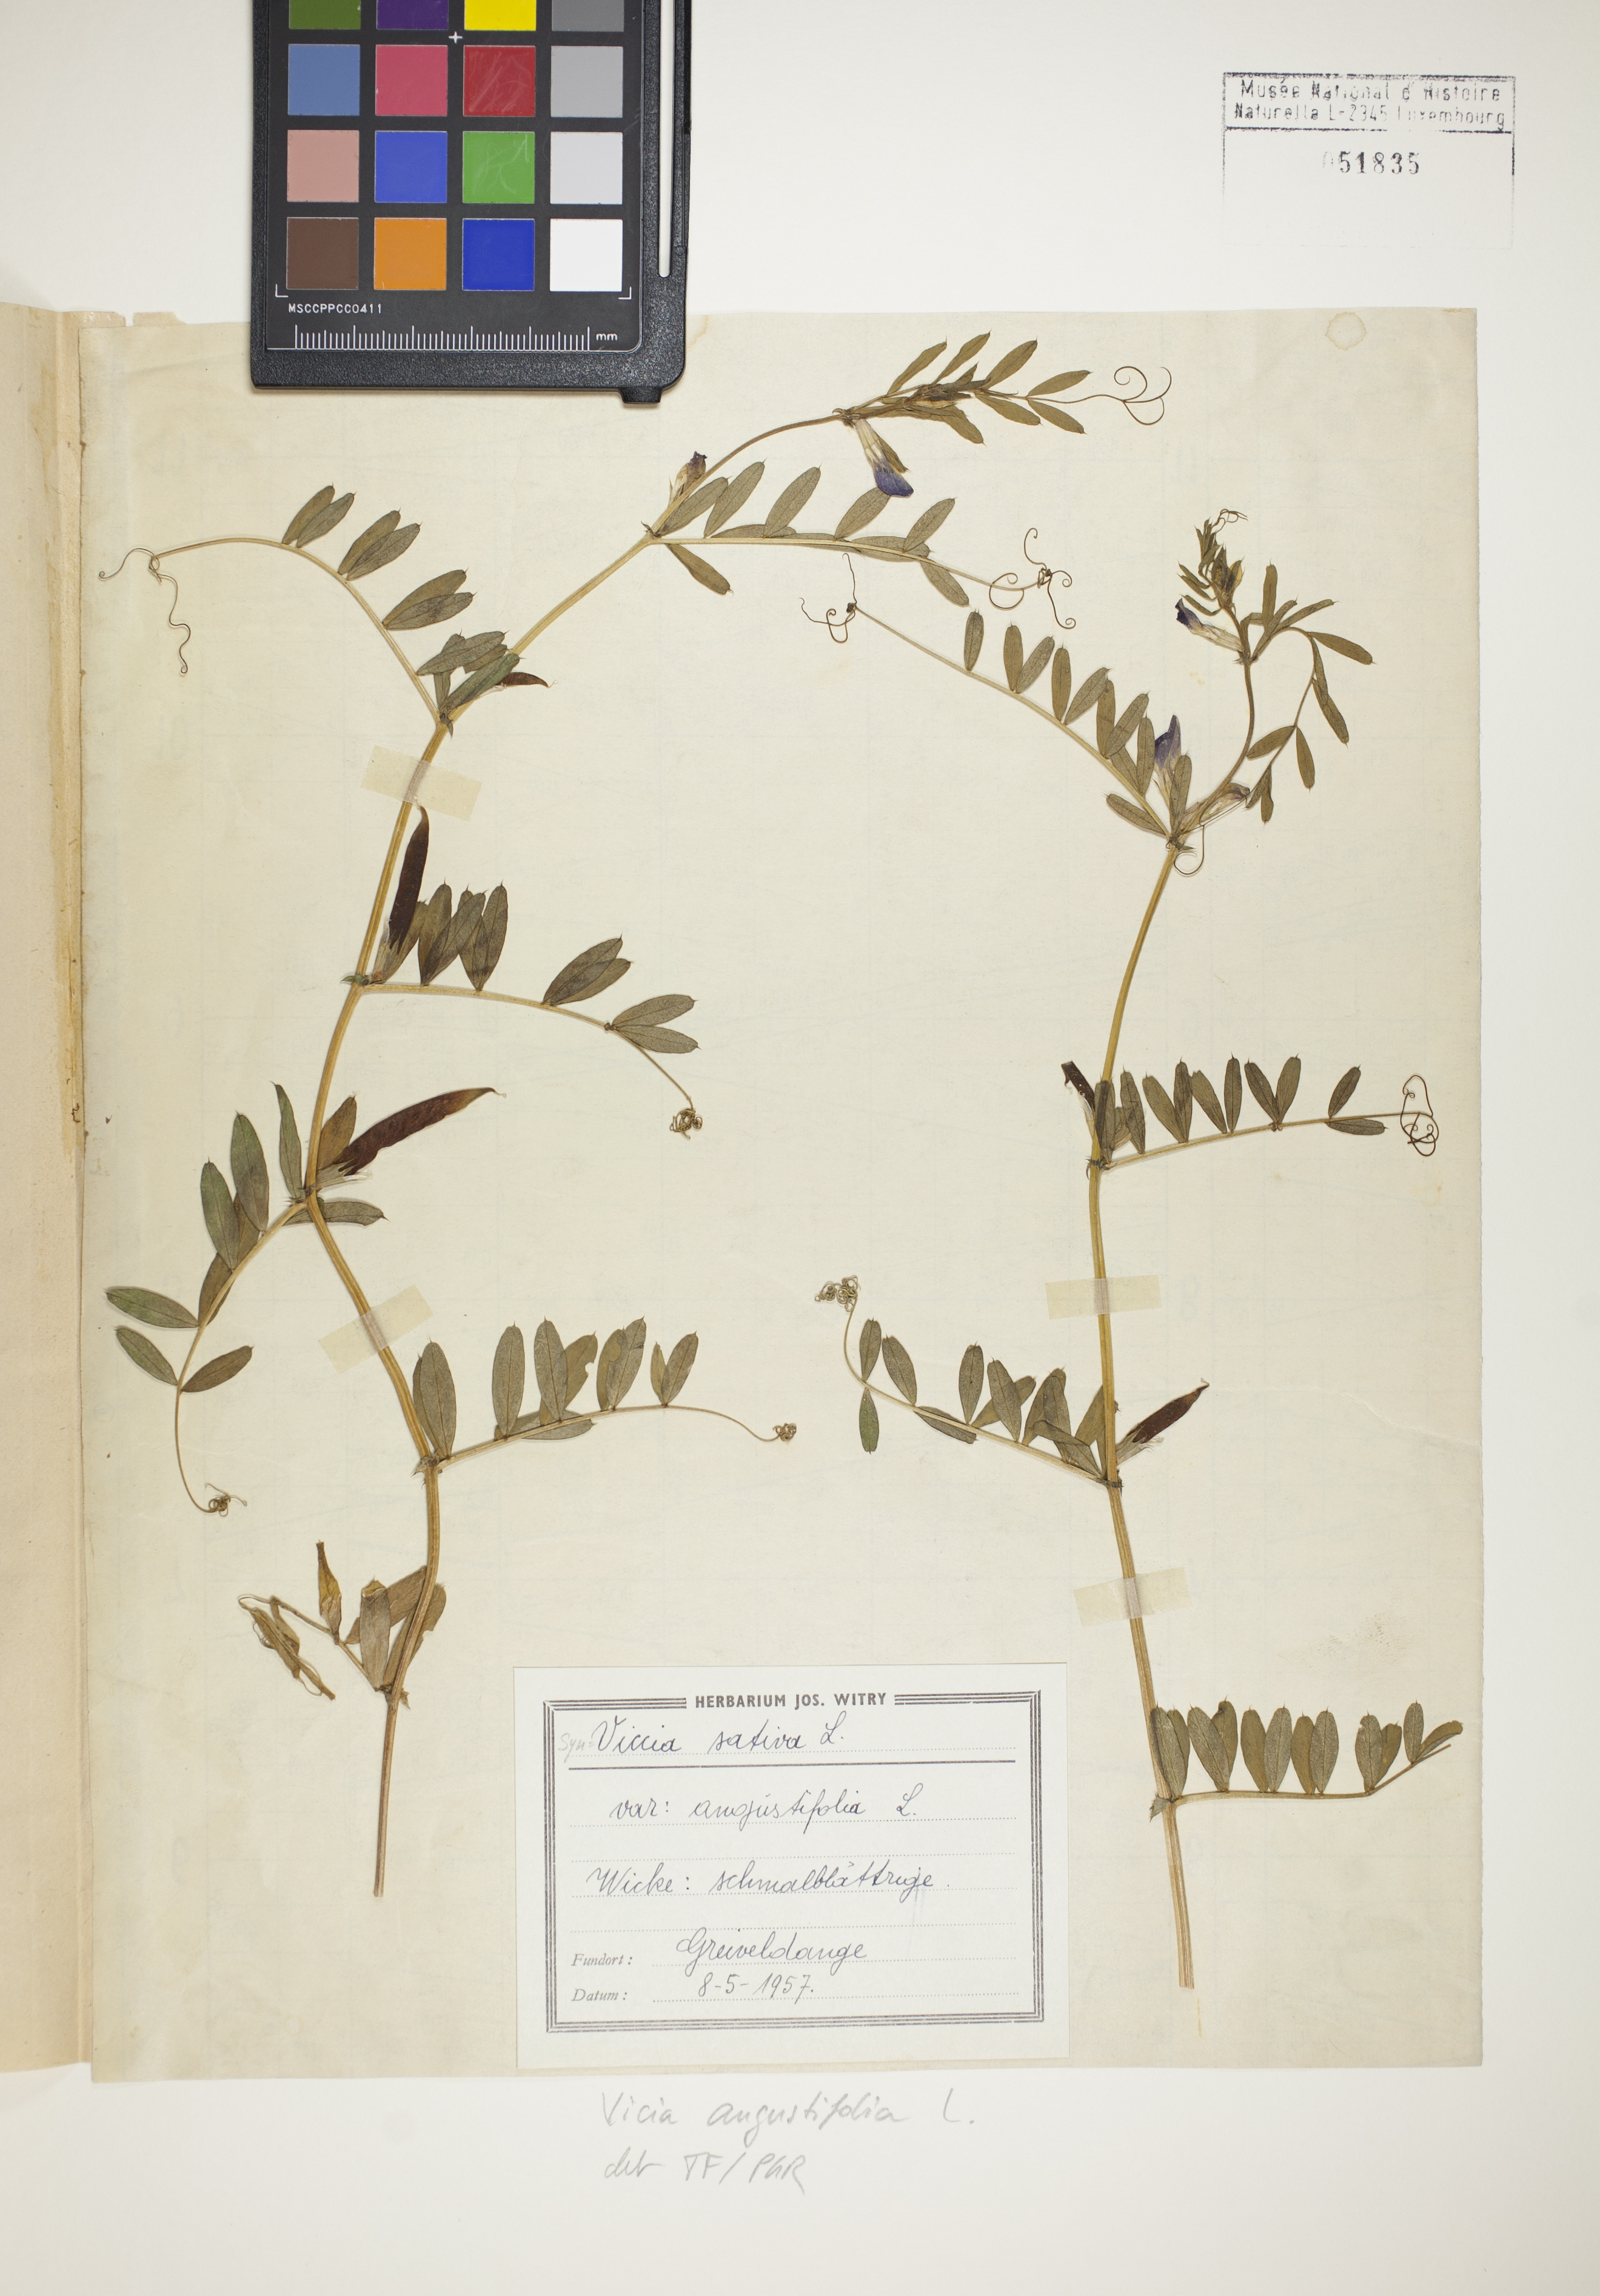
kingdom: Plantae
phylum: Tracheophyta
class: Magnoliopsida
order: Fabales
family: Fabaceae
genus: Vicia
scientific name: Vicia sativa
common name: Garden vetch
